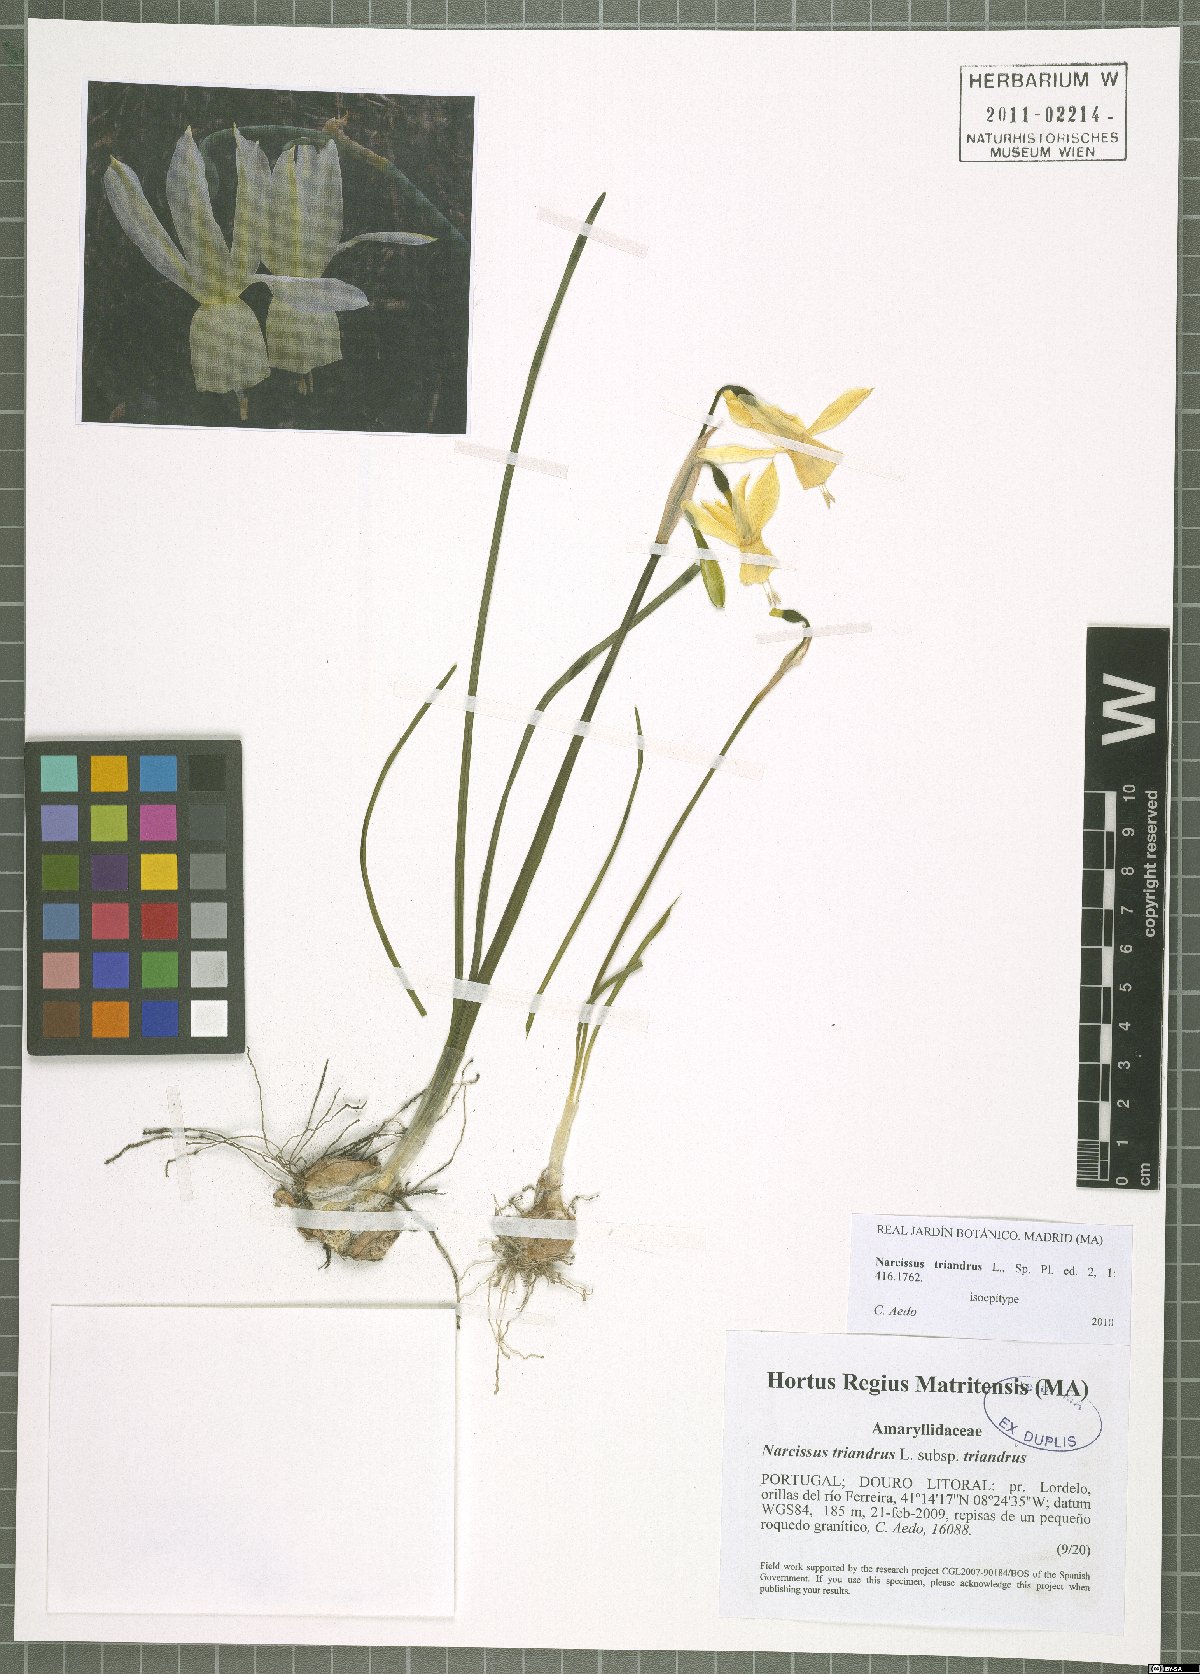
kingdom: Plantae
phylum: Tracheophyta
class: Liliopsida
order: Asparagales
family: Amaryllidaceae
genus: Narcissus
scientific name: Narcissus triandrus
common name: Angel's-tears
